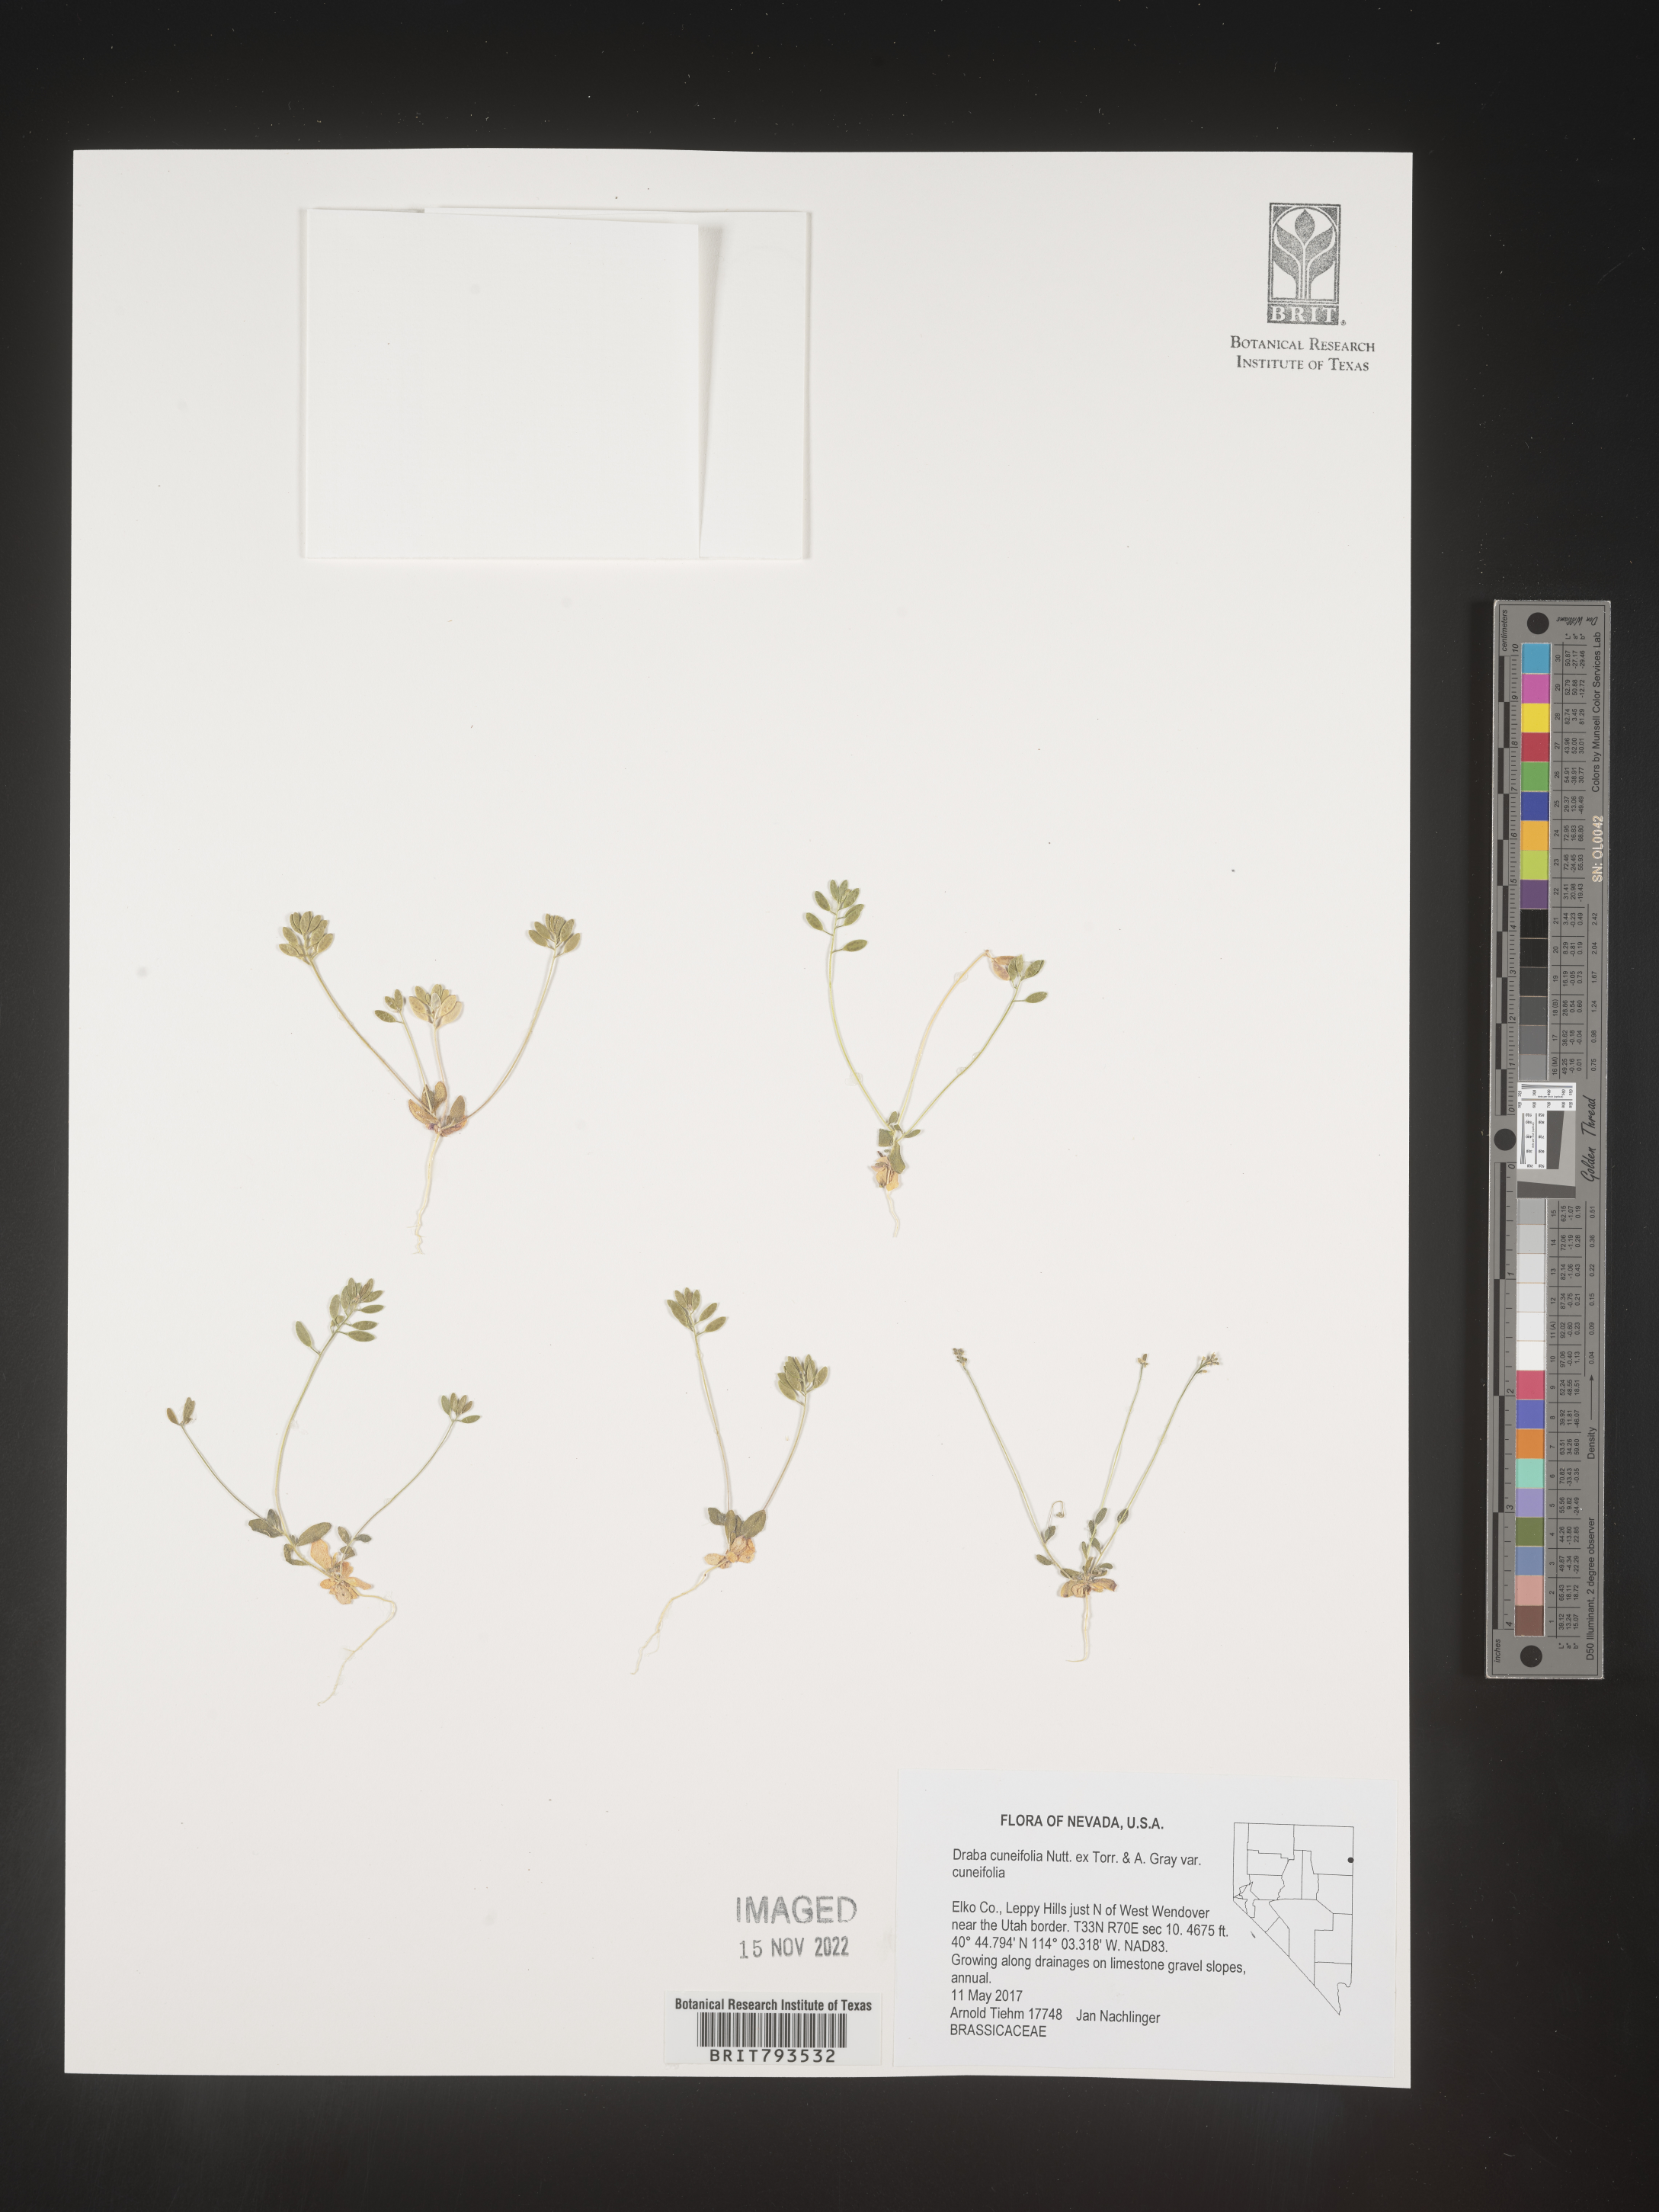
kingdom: Plantae
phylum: Tracheophyta
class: Magnoliopsida
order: Brassicales
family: Brassicaceae
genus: Tomostima
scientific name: Tomostima cuneifolia
